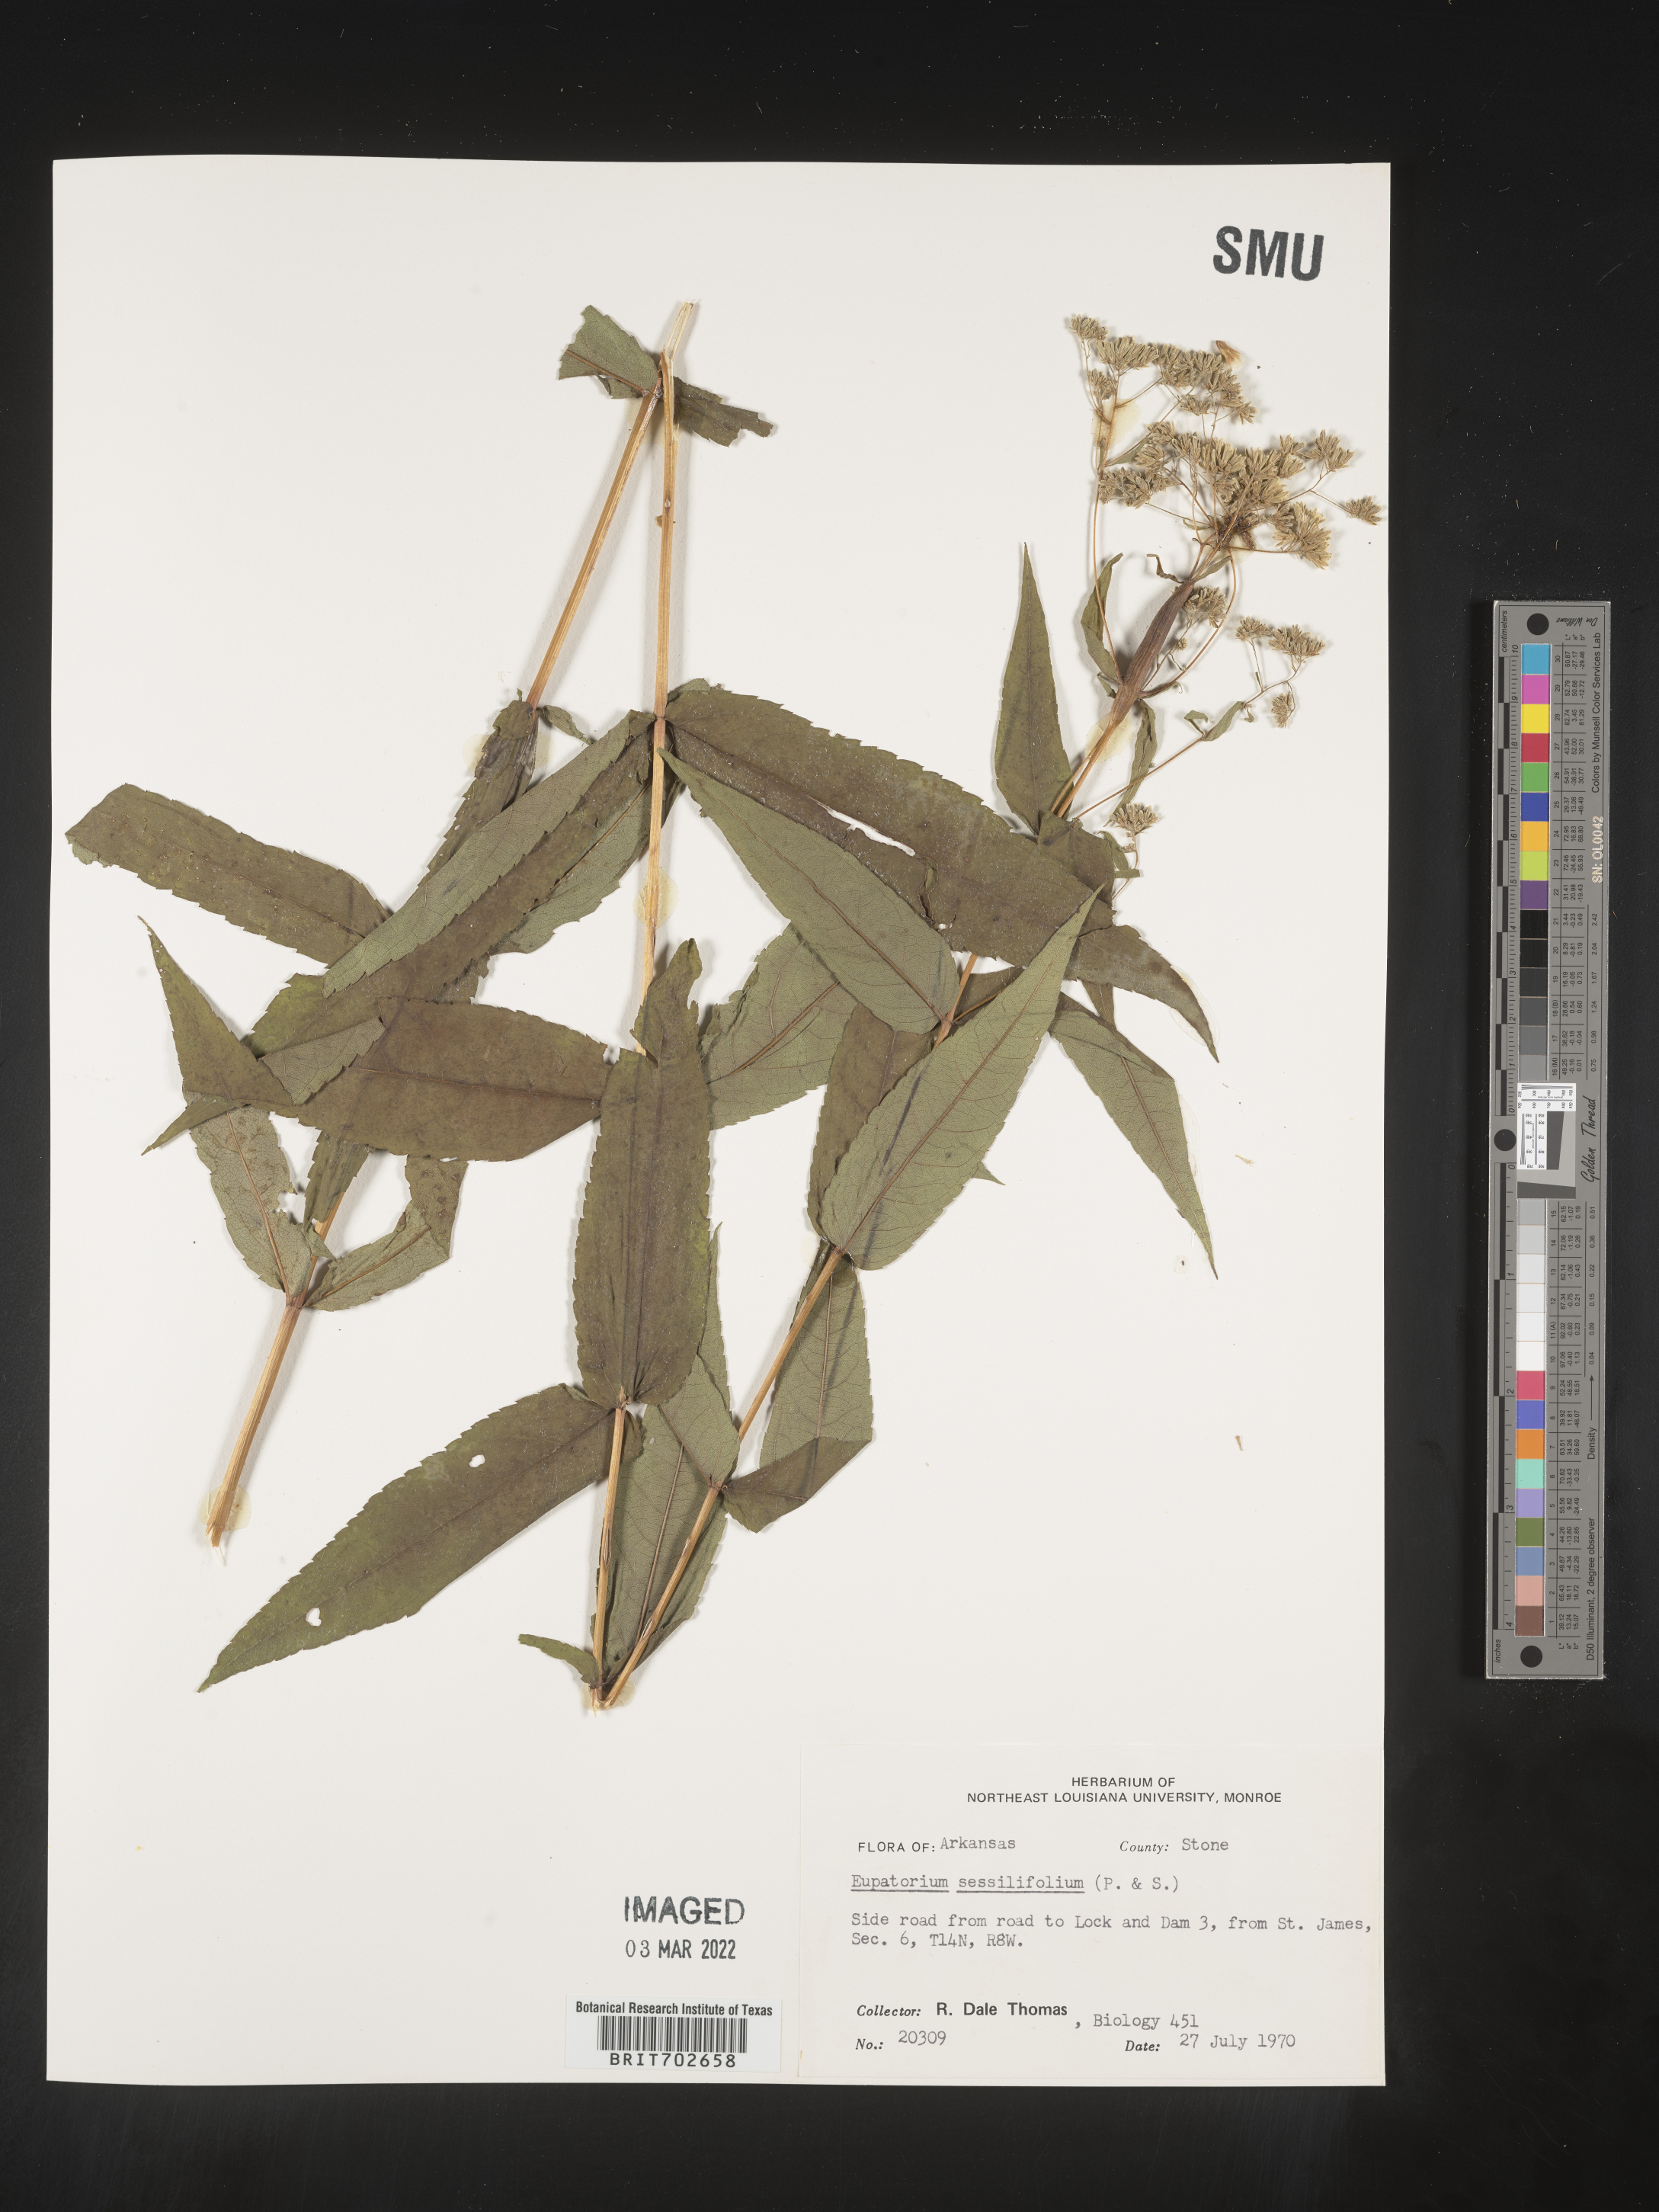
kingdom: Plantae
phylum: Tracheophyta
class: Magnoliopsida
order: Asterales
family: Asteraceae
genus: Eupatorium
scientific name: Eupatorium sessilifolium
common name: Upland boneset
